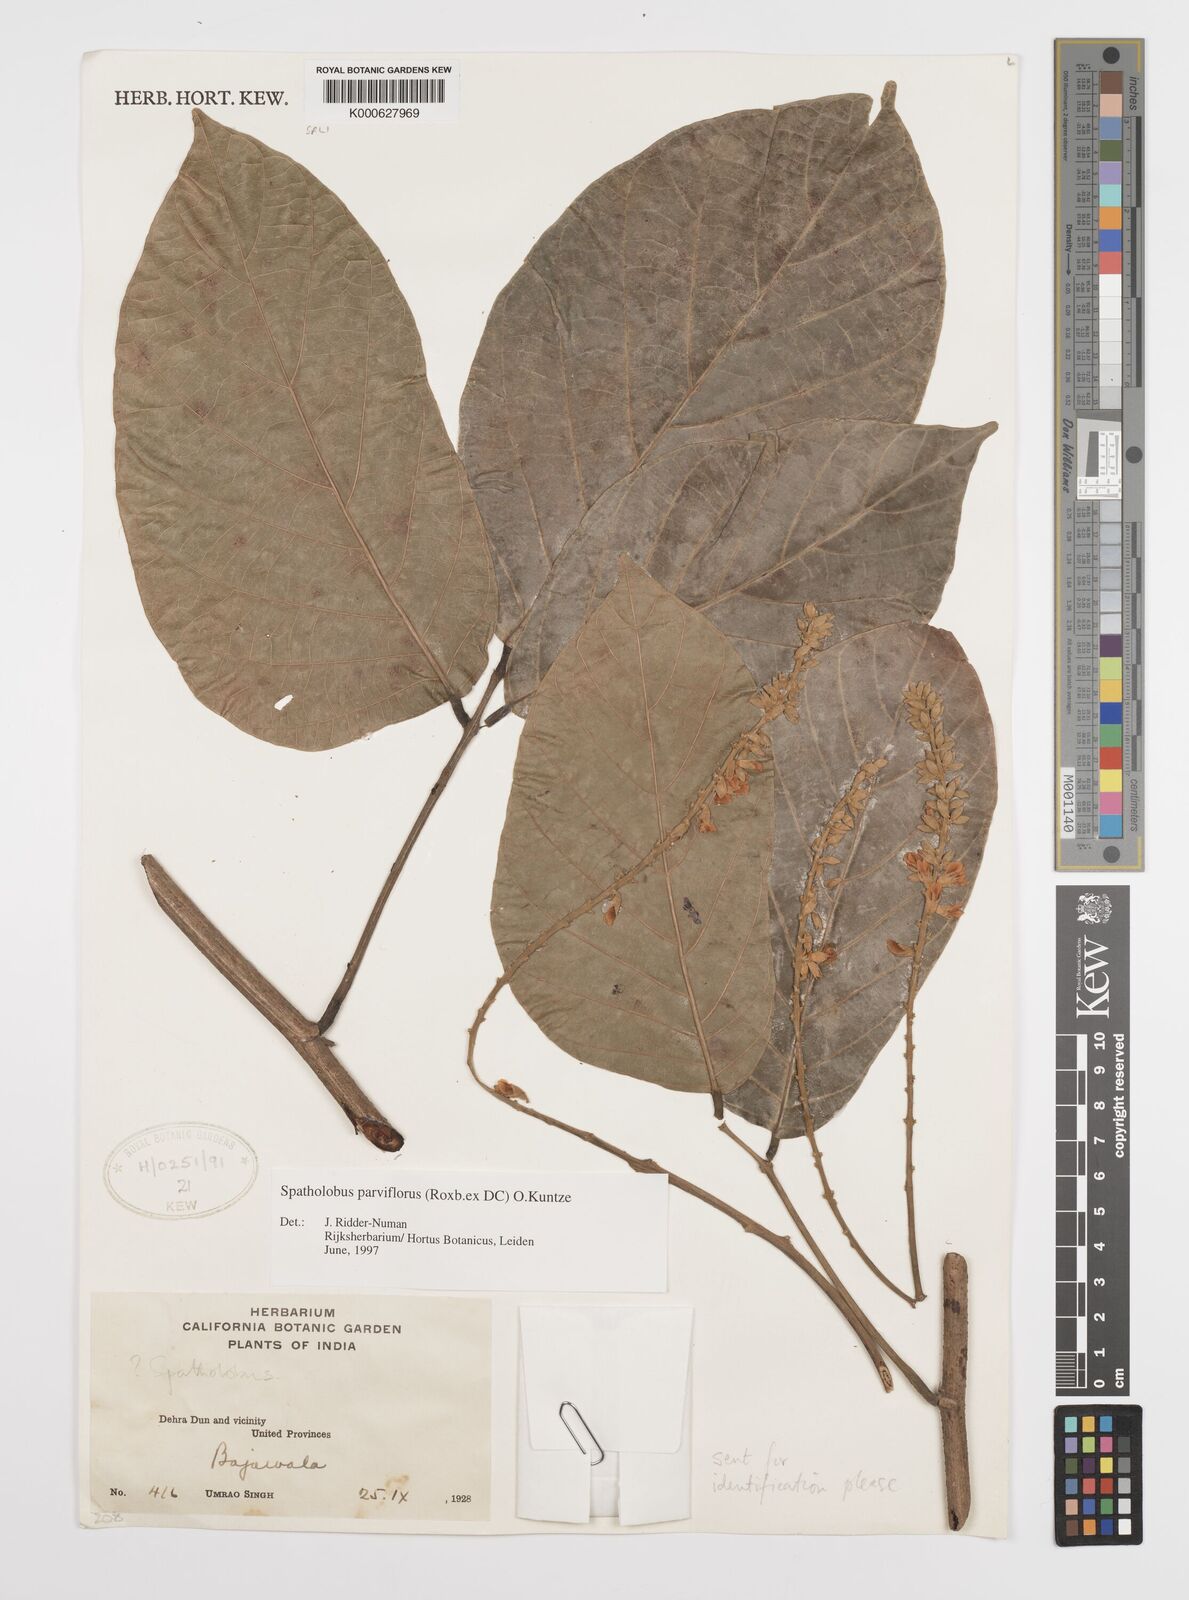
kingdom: Plantae
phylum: Tracheophyta
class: Magnoliopsida
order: Fabales
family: Fabaceae
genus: Spatholobus
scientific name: Spatholobus parviflorus
